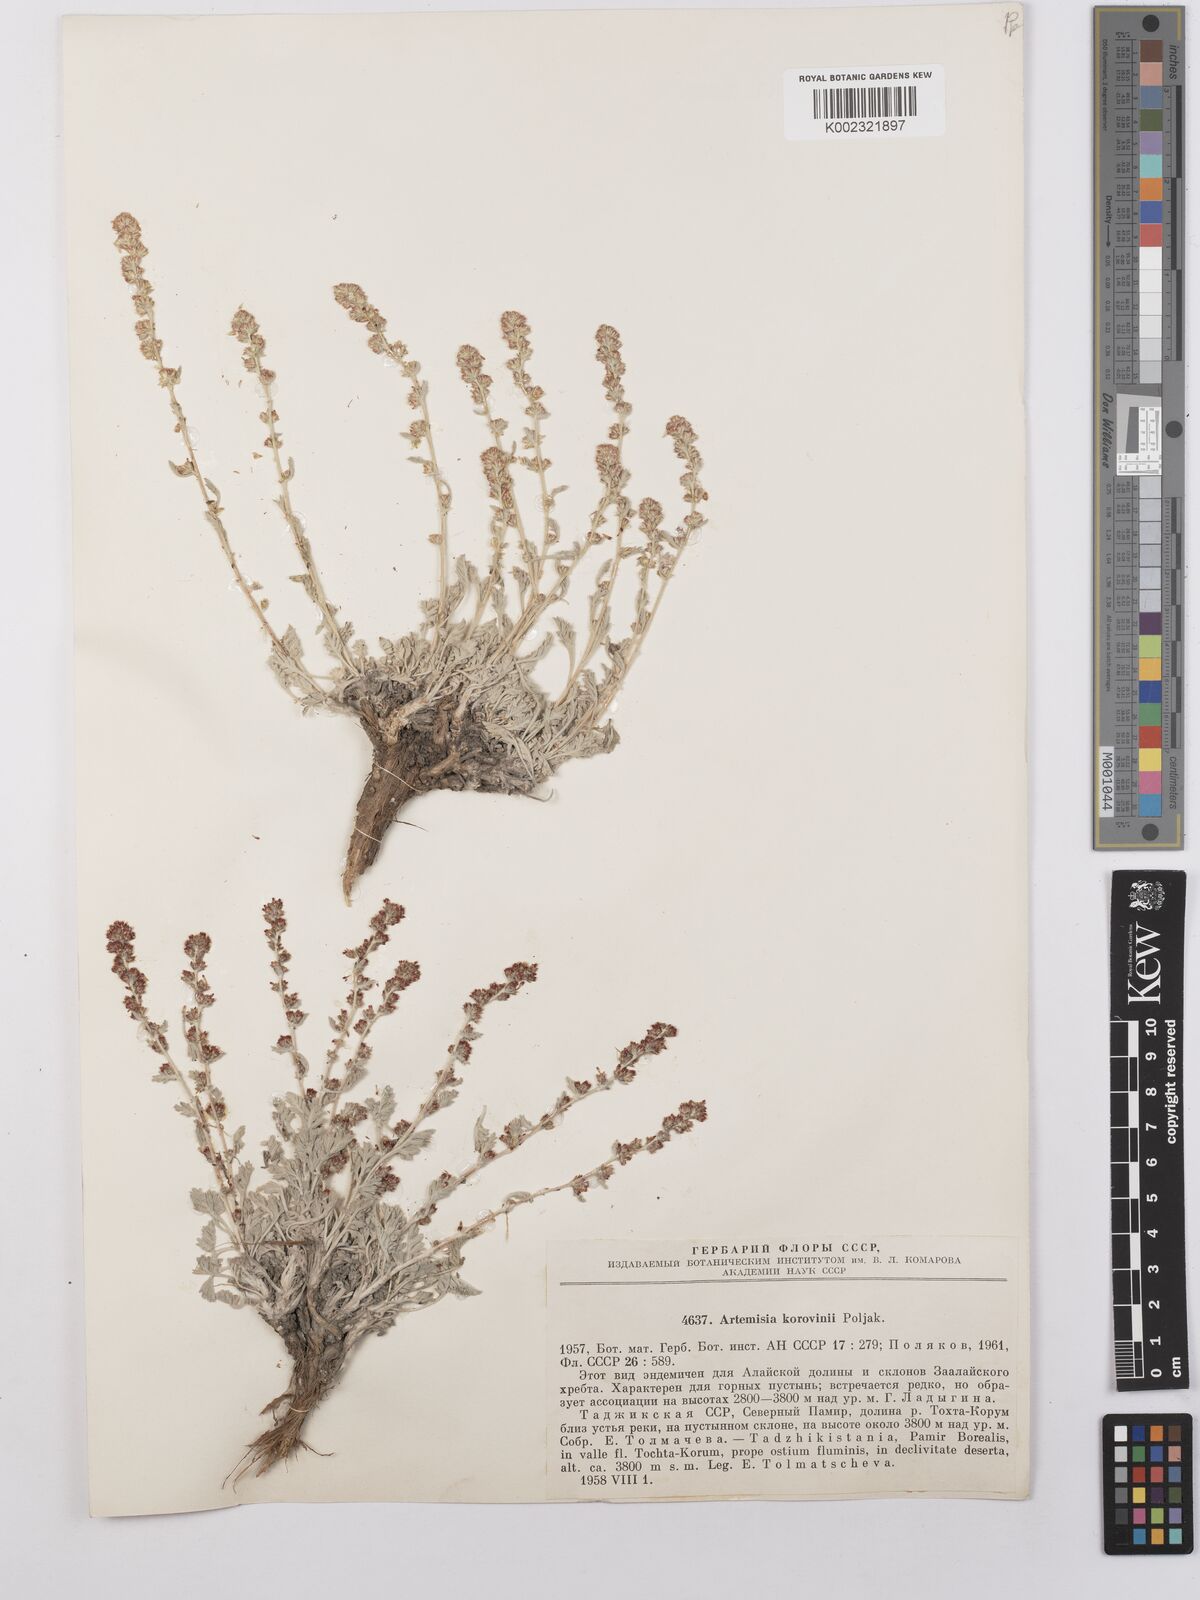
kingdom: Plantae
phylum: Tracheophyta
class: Magnoliopsida
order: Asterales
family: Asteraceae
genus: Artemisia
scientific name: Artemisia korovinii
